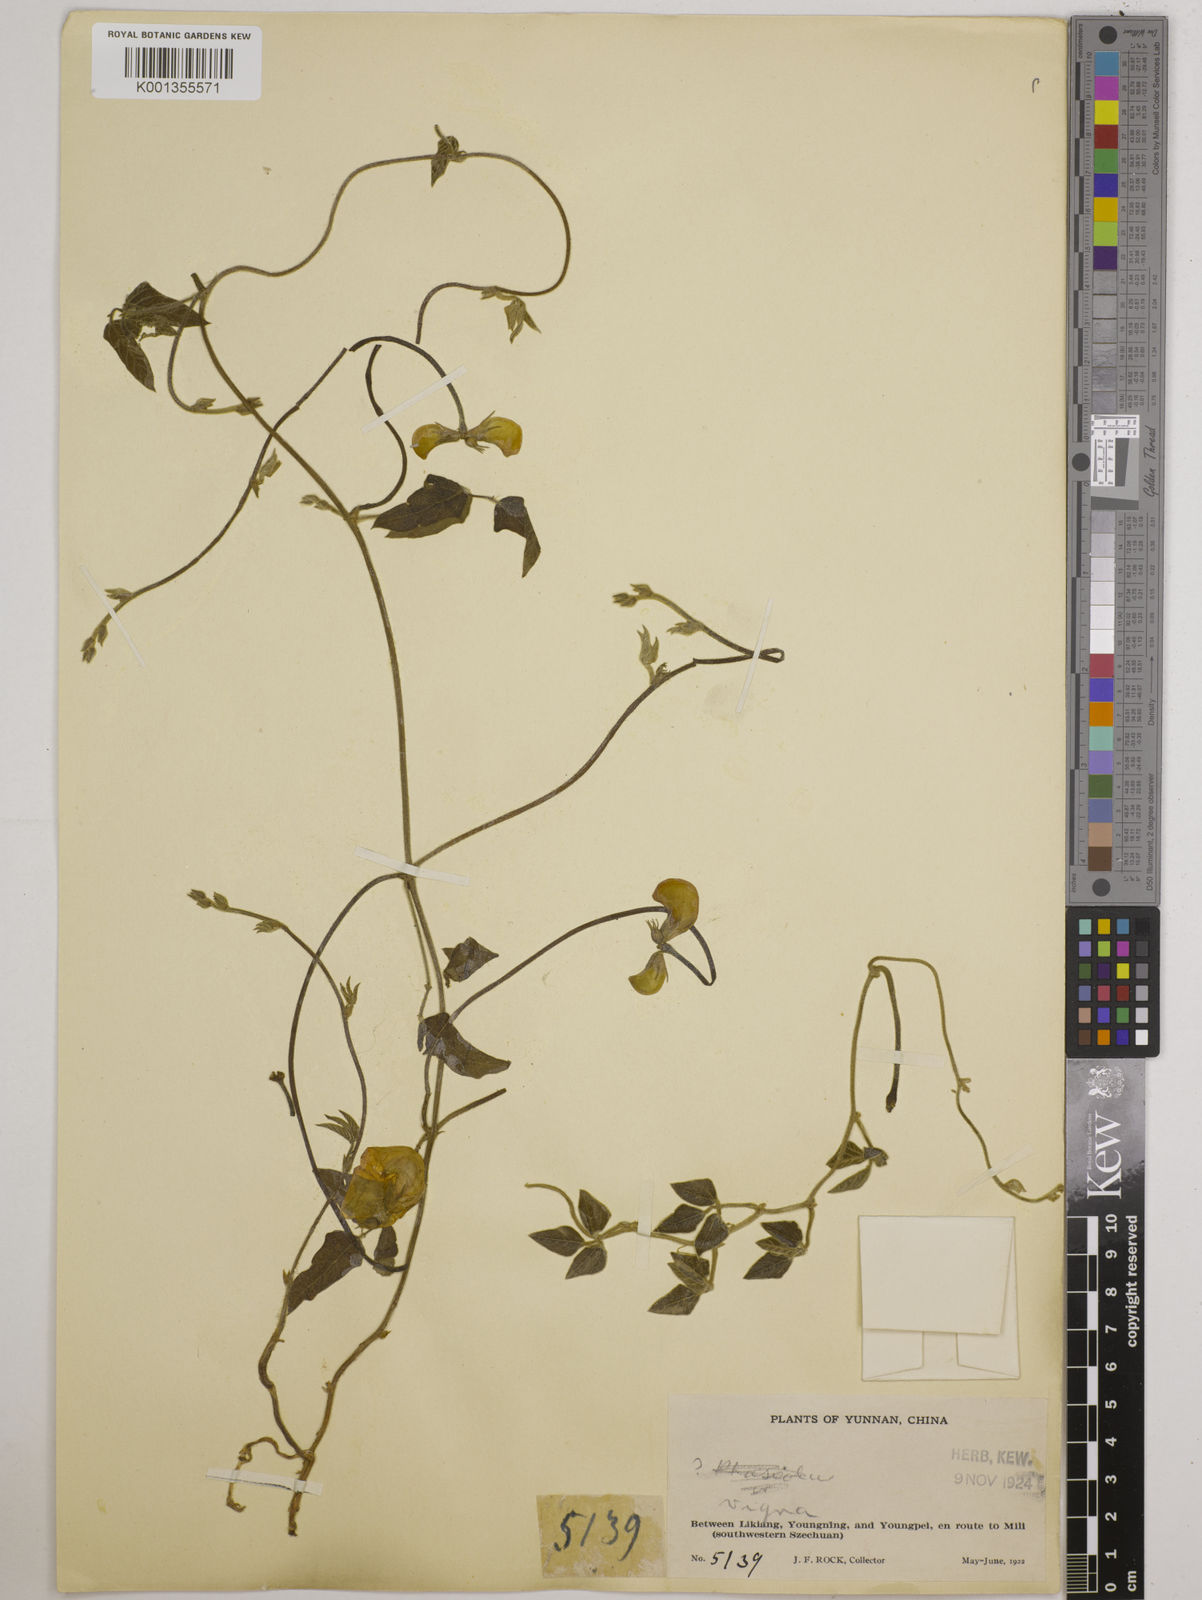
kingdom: Plantae
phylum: Tracheophyta
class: Magnoliopsida
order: Fabales
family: Fabaceae
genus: Vigna
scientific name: Vigna vexillata
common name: Zombi pea
